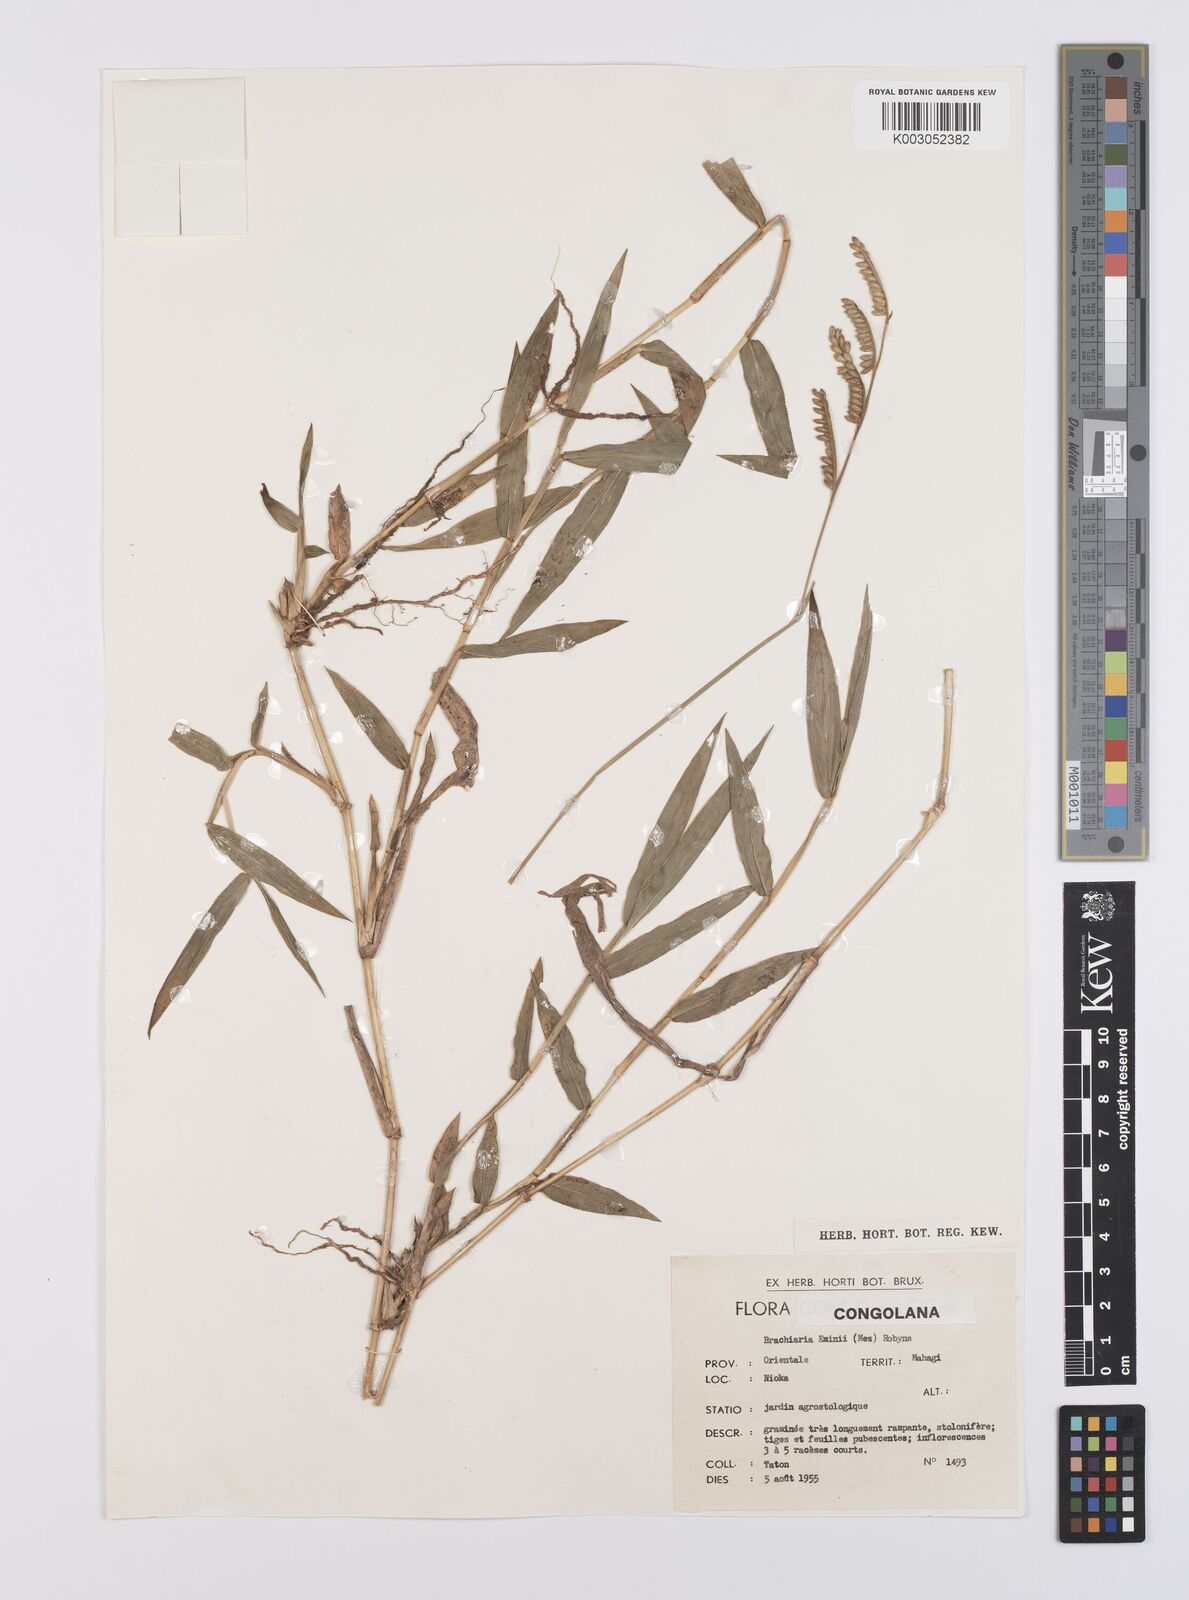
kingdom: Plantae
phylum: Tracheophyta
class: Liliopsida
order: Poales
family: Poaceae
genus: Urochloa
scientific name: Urochloa eminii
